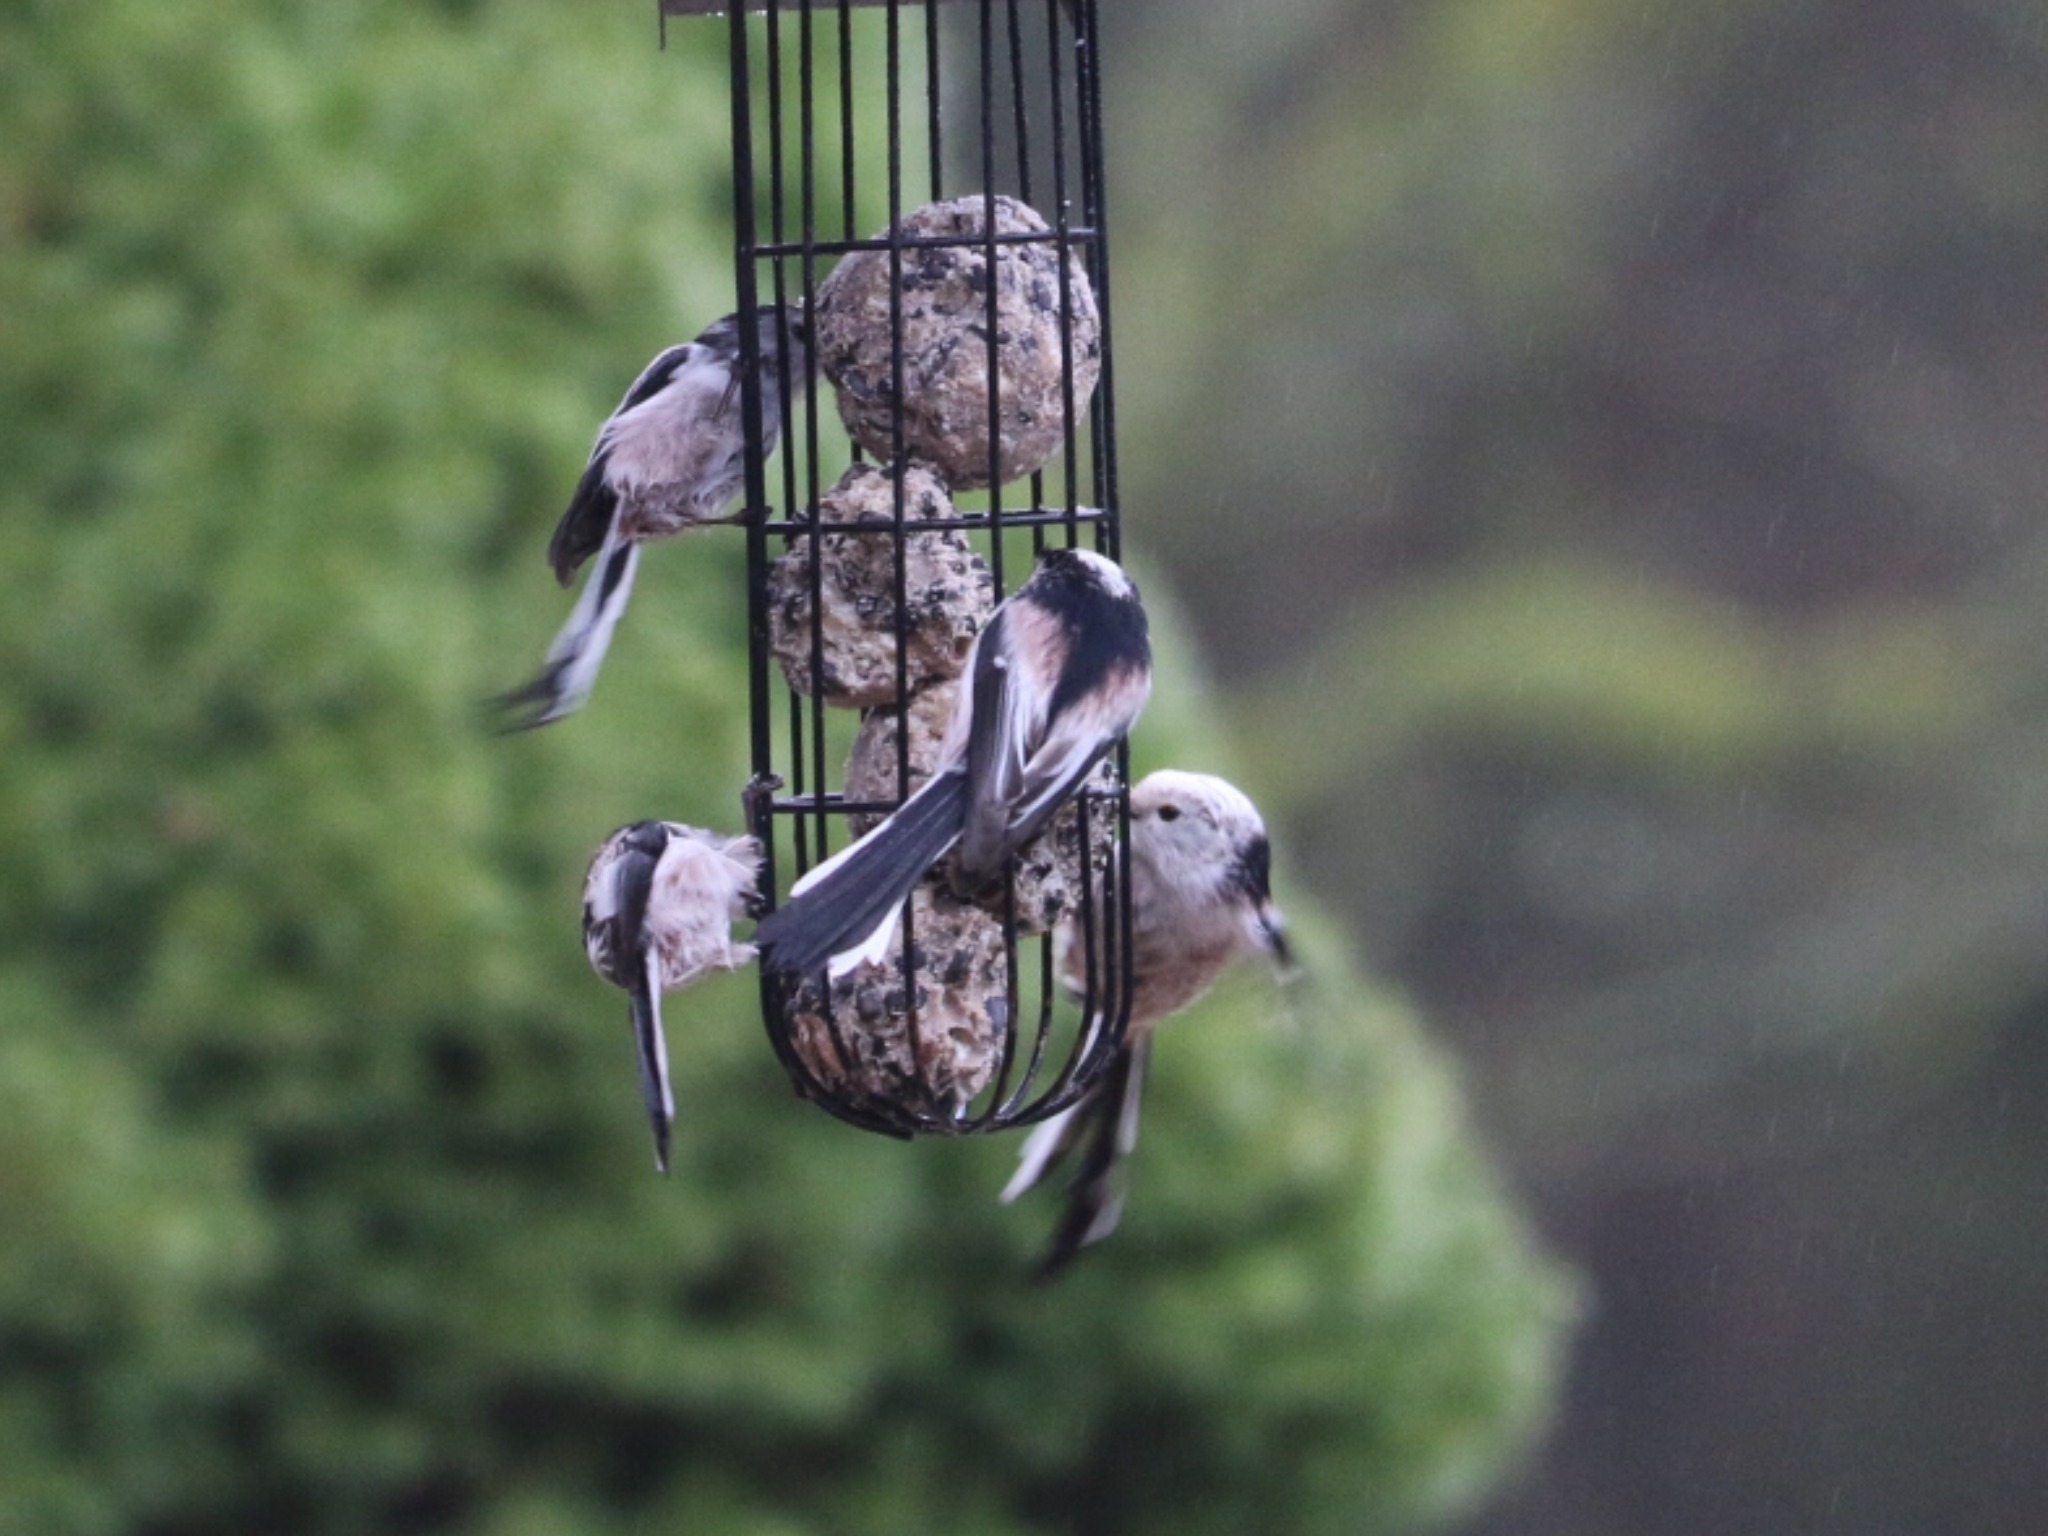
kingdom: Animalia
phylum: Chordata
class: Aves
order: Passeriformes
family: Aegithalidae
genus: Aegithalos
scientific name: Aegithalos caudatus
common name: Halemejse
